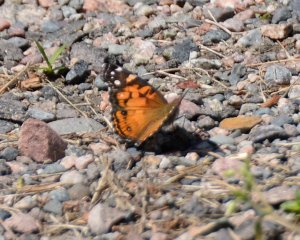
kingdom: Animalia
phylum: Arthropoda
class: Insecta
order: Lepidoptera
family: Nymphalidae
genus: Vanessa
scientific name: Vanessa virginiensis
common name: American Lady
